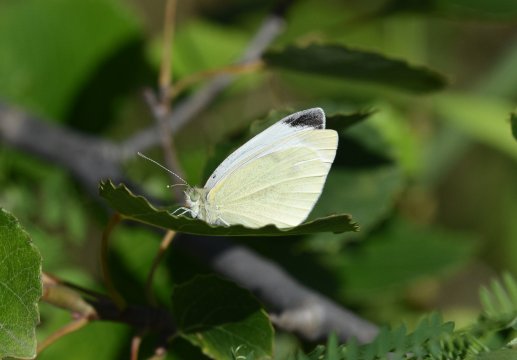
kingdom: Animalia
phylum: Arthropoda
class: Insecta
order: Lepidoptera
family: Pieridae
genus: Pieris
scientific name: Pieris rapae
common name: Cabbage White
